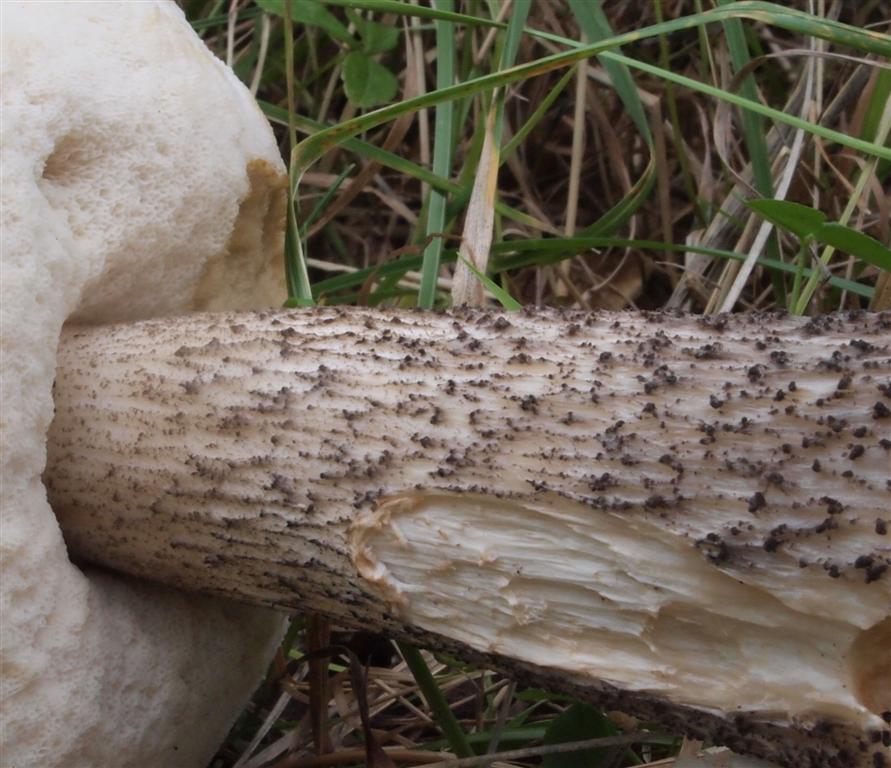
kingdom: Fungi
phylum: Basidiomycota
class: Agaricomycetes
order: Boletales
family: Boletaceae
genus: Leccinum
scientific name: Leccinum scabrum
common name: brun skælrørhat
